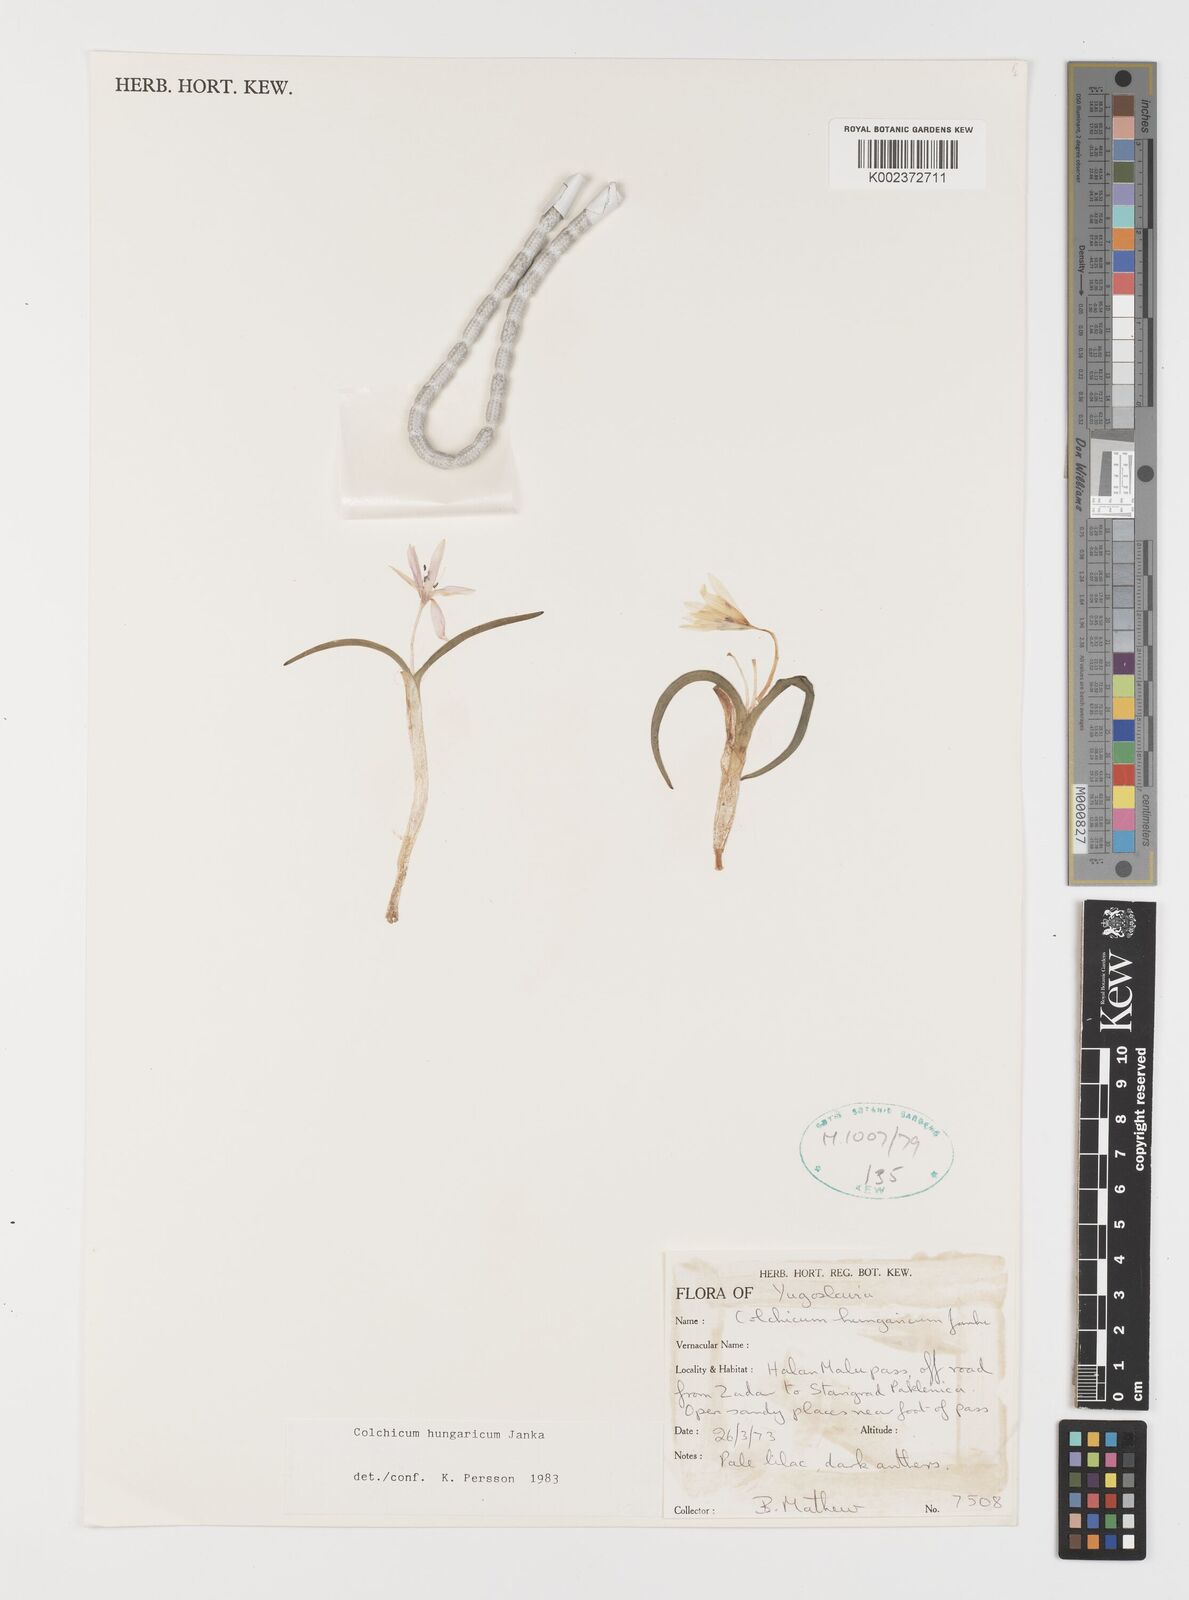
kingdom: Plantae
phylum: Tracheophyta
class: Liliopsida
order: Liliales
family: Colchicaceae
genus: Colchicum
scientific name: Colchicum hungaricum
